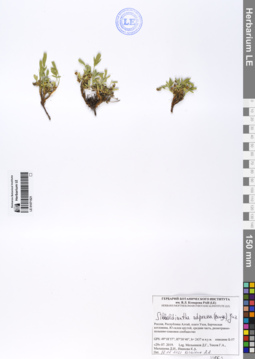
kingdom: Plantae
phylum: Tracheophyta
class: Magnoliopsida
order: Rosales
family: Rosaceae
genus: Sibbaldianthe
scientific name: Sibbaldianthe adpressa
